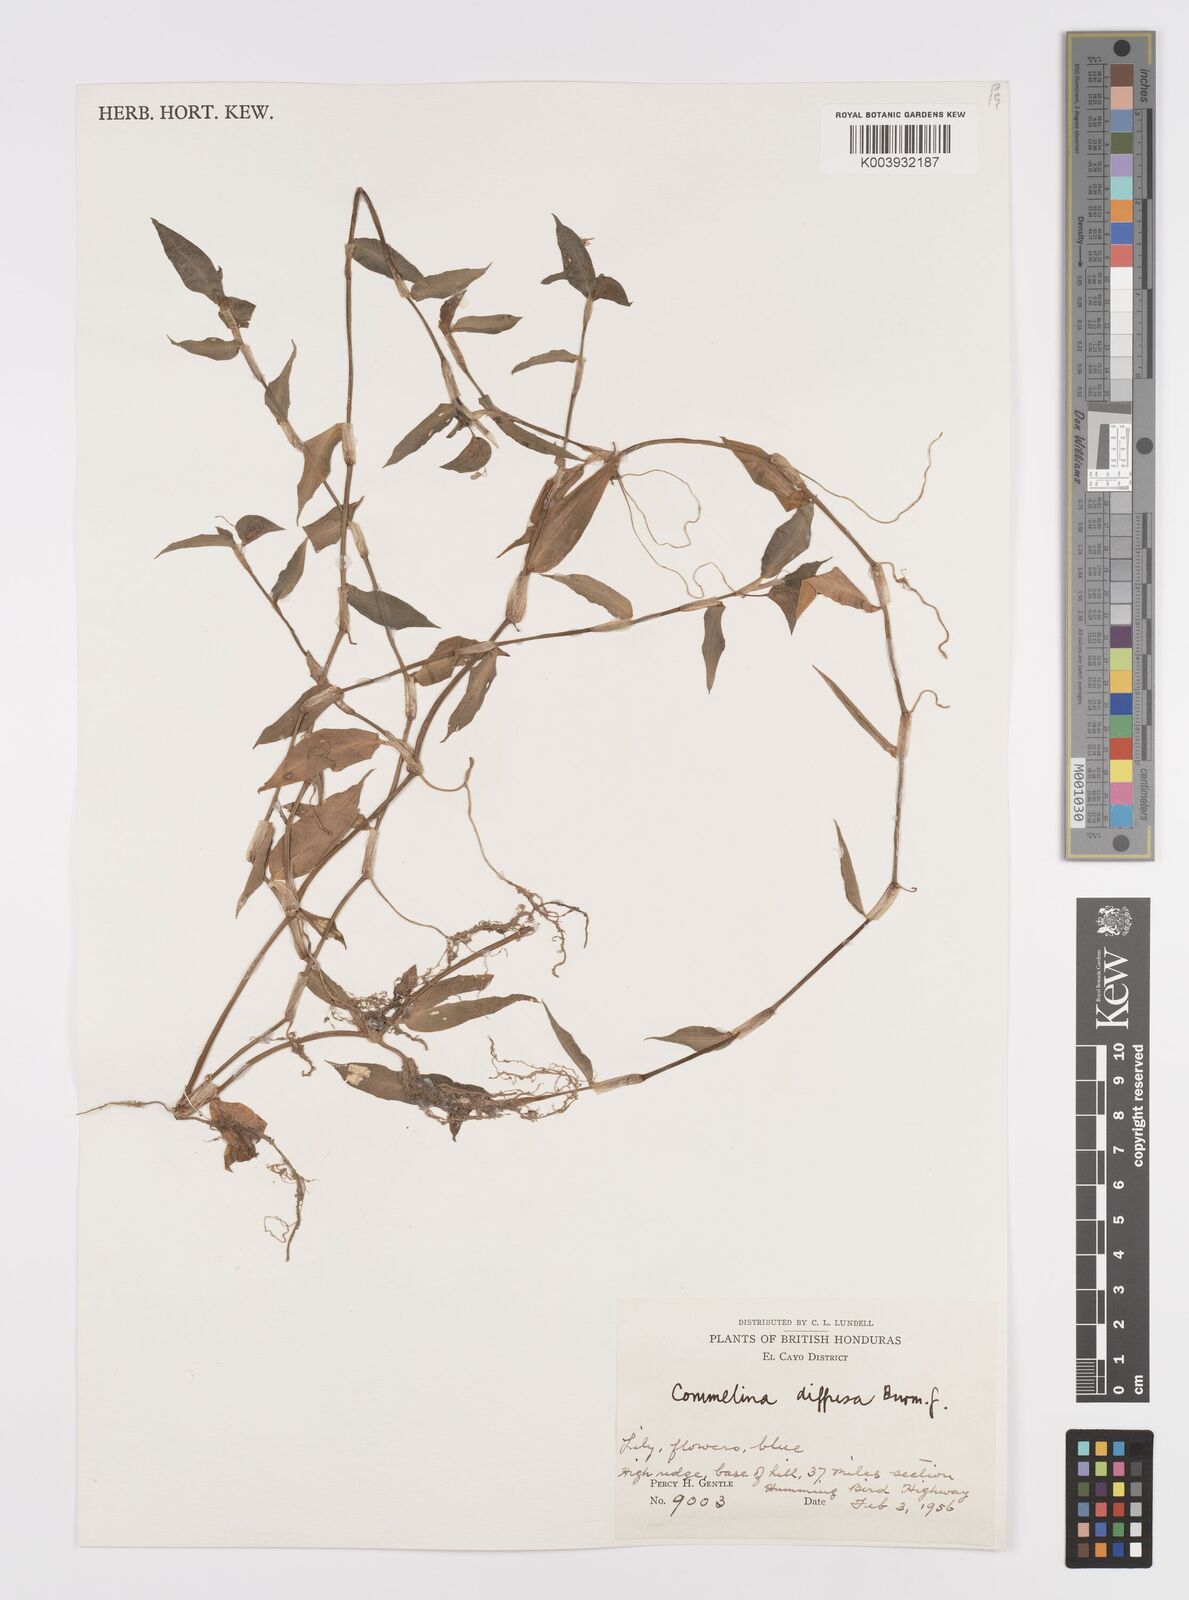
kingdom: Plantae
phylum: Tracheophyta
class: Liliopsida
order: Commelinales
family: Commelinaceae
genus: Commelina
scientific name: Commelina diffusa
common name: Climbing dayflower
